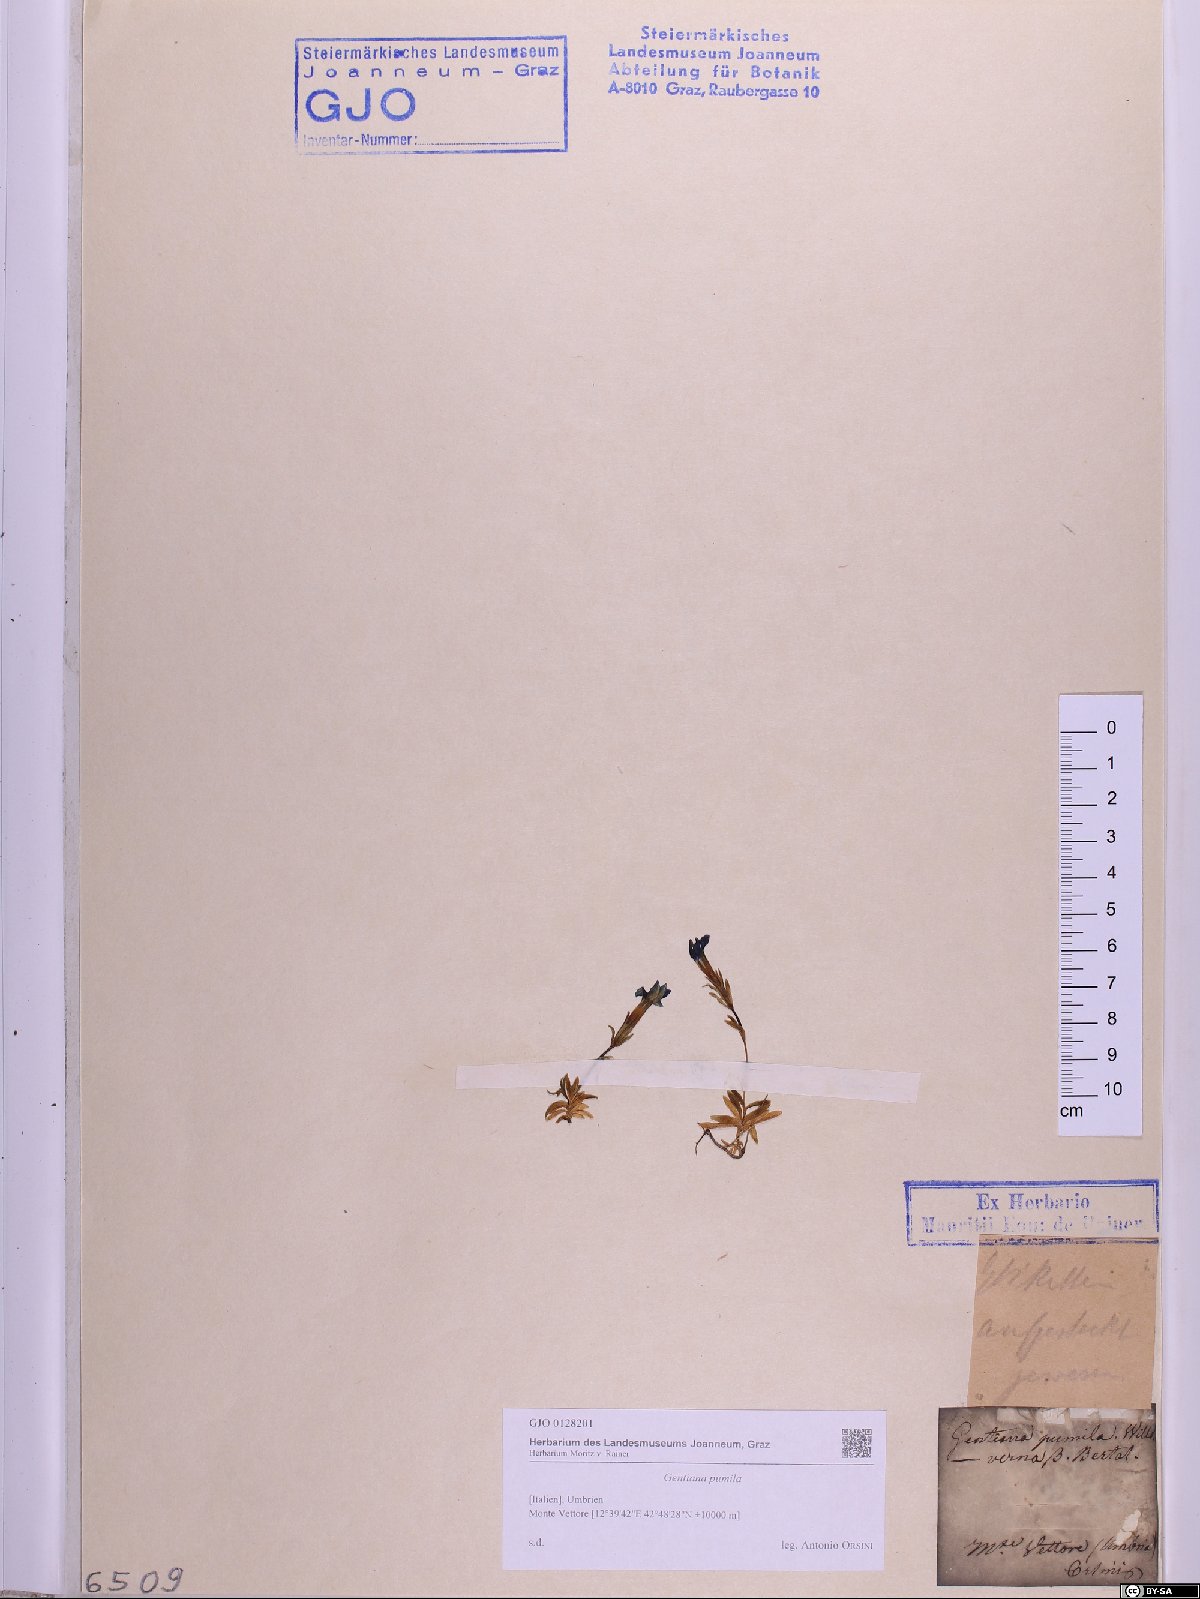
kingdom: Plantae
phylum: Tracheophyta
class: Magnoliopsida
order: Gentianales
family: Gentianaceae
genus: Gentiana
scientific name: Gentiana pumila
